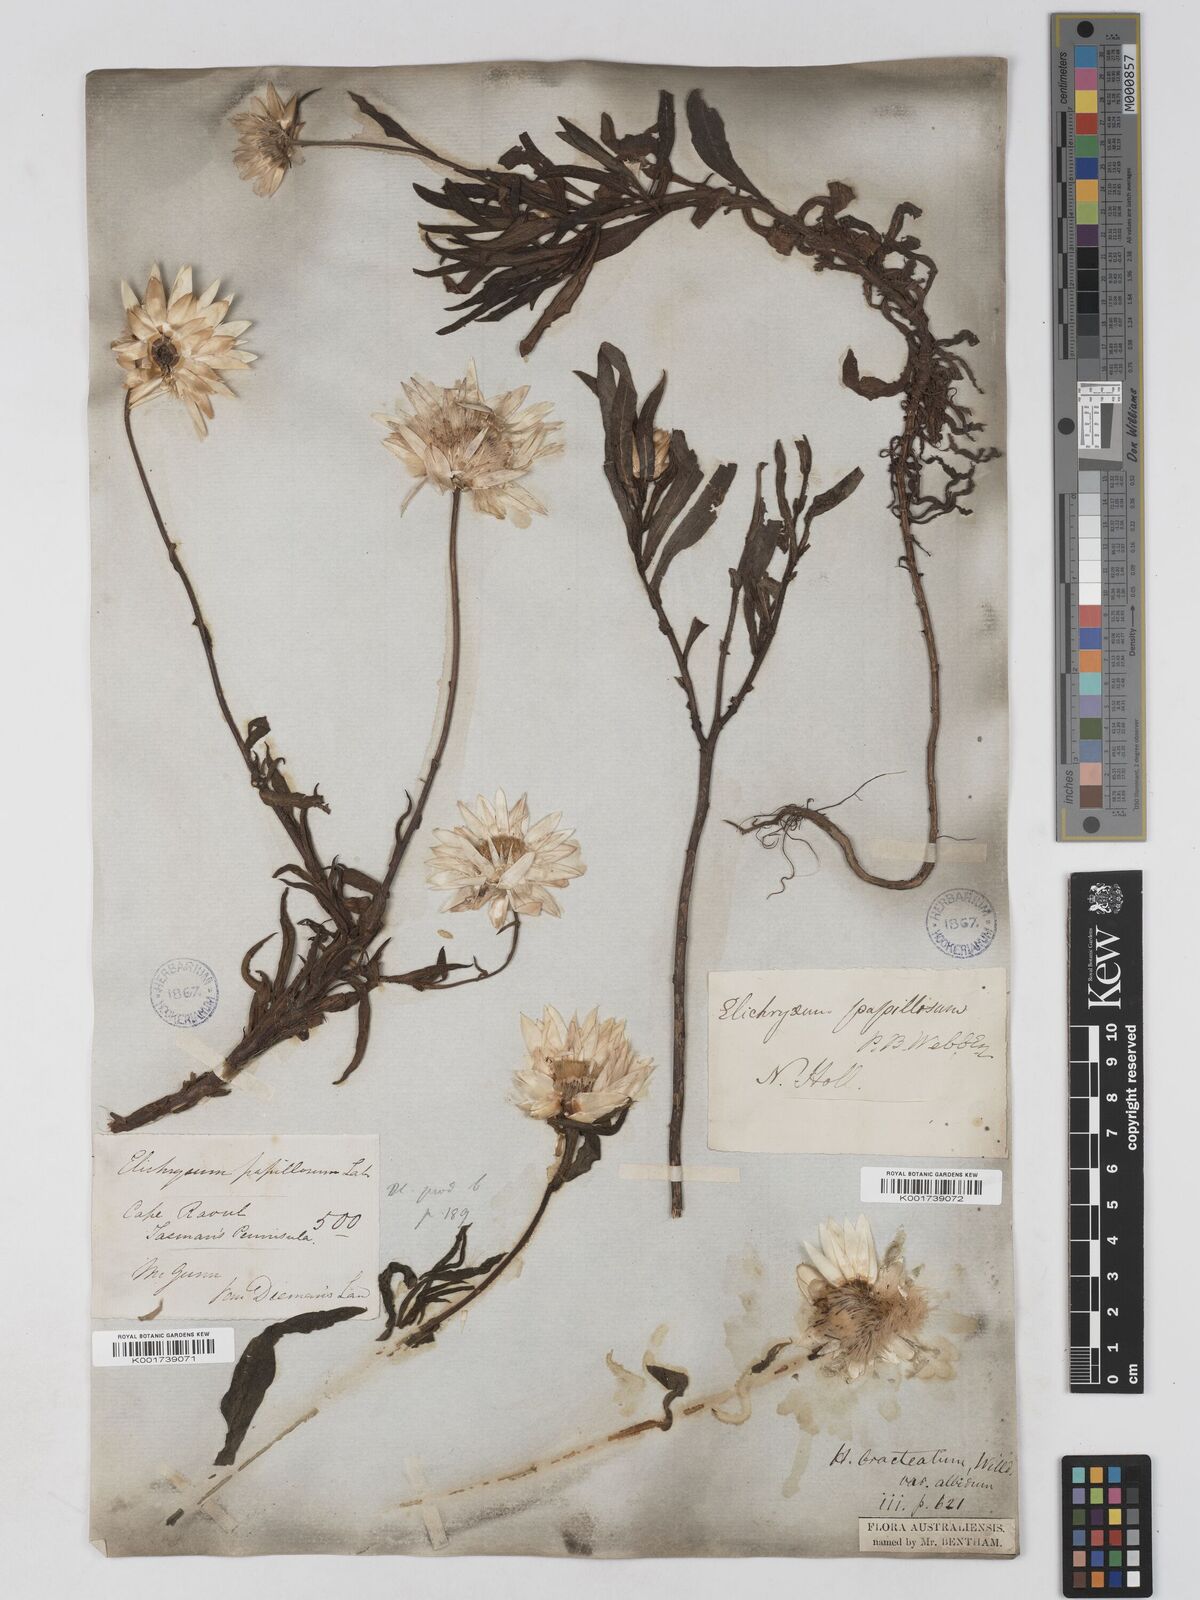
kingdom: Plantae
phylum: Tracheophyta
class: Magnoliopsida
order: Asterales
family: Asteraceae
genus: Xerochrysum
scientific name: Xerochrysum papillosum
